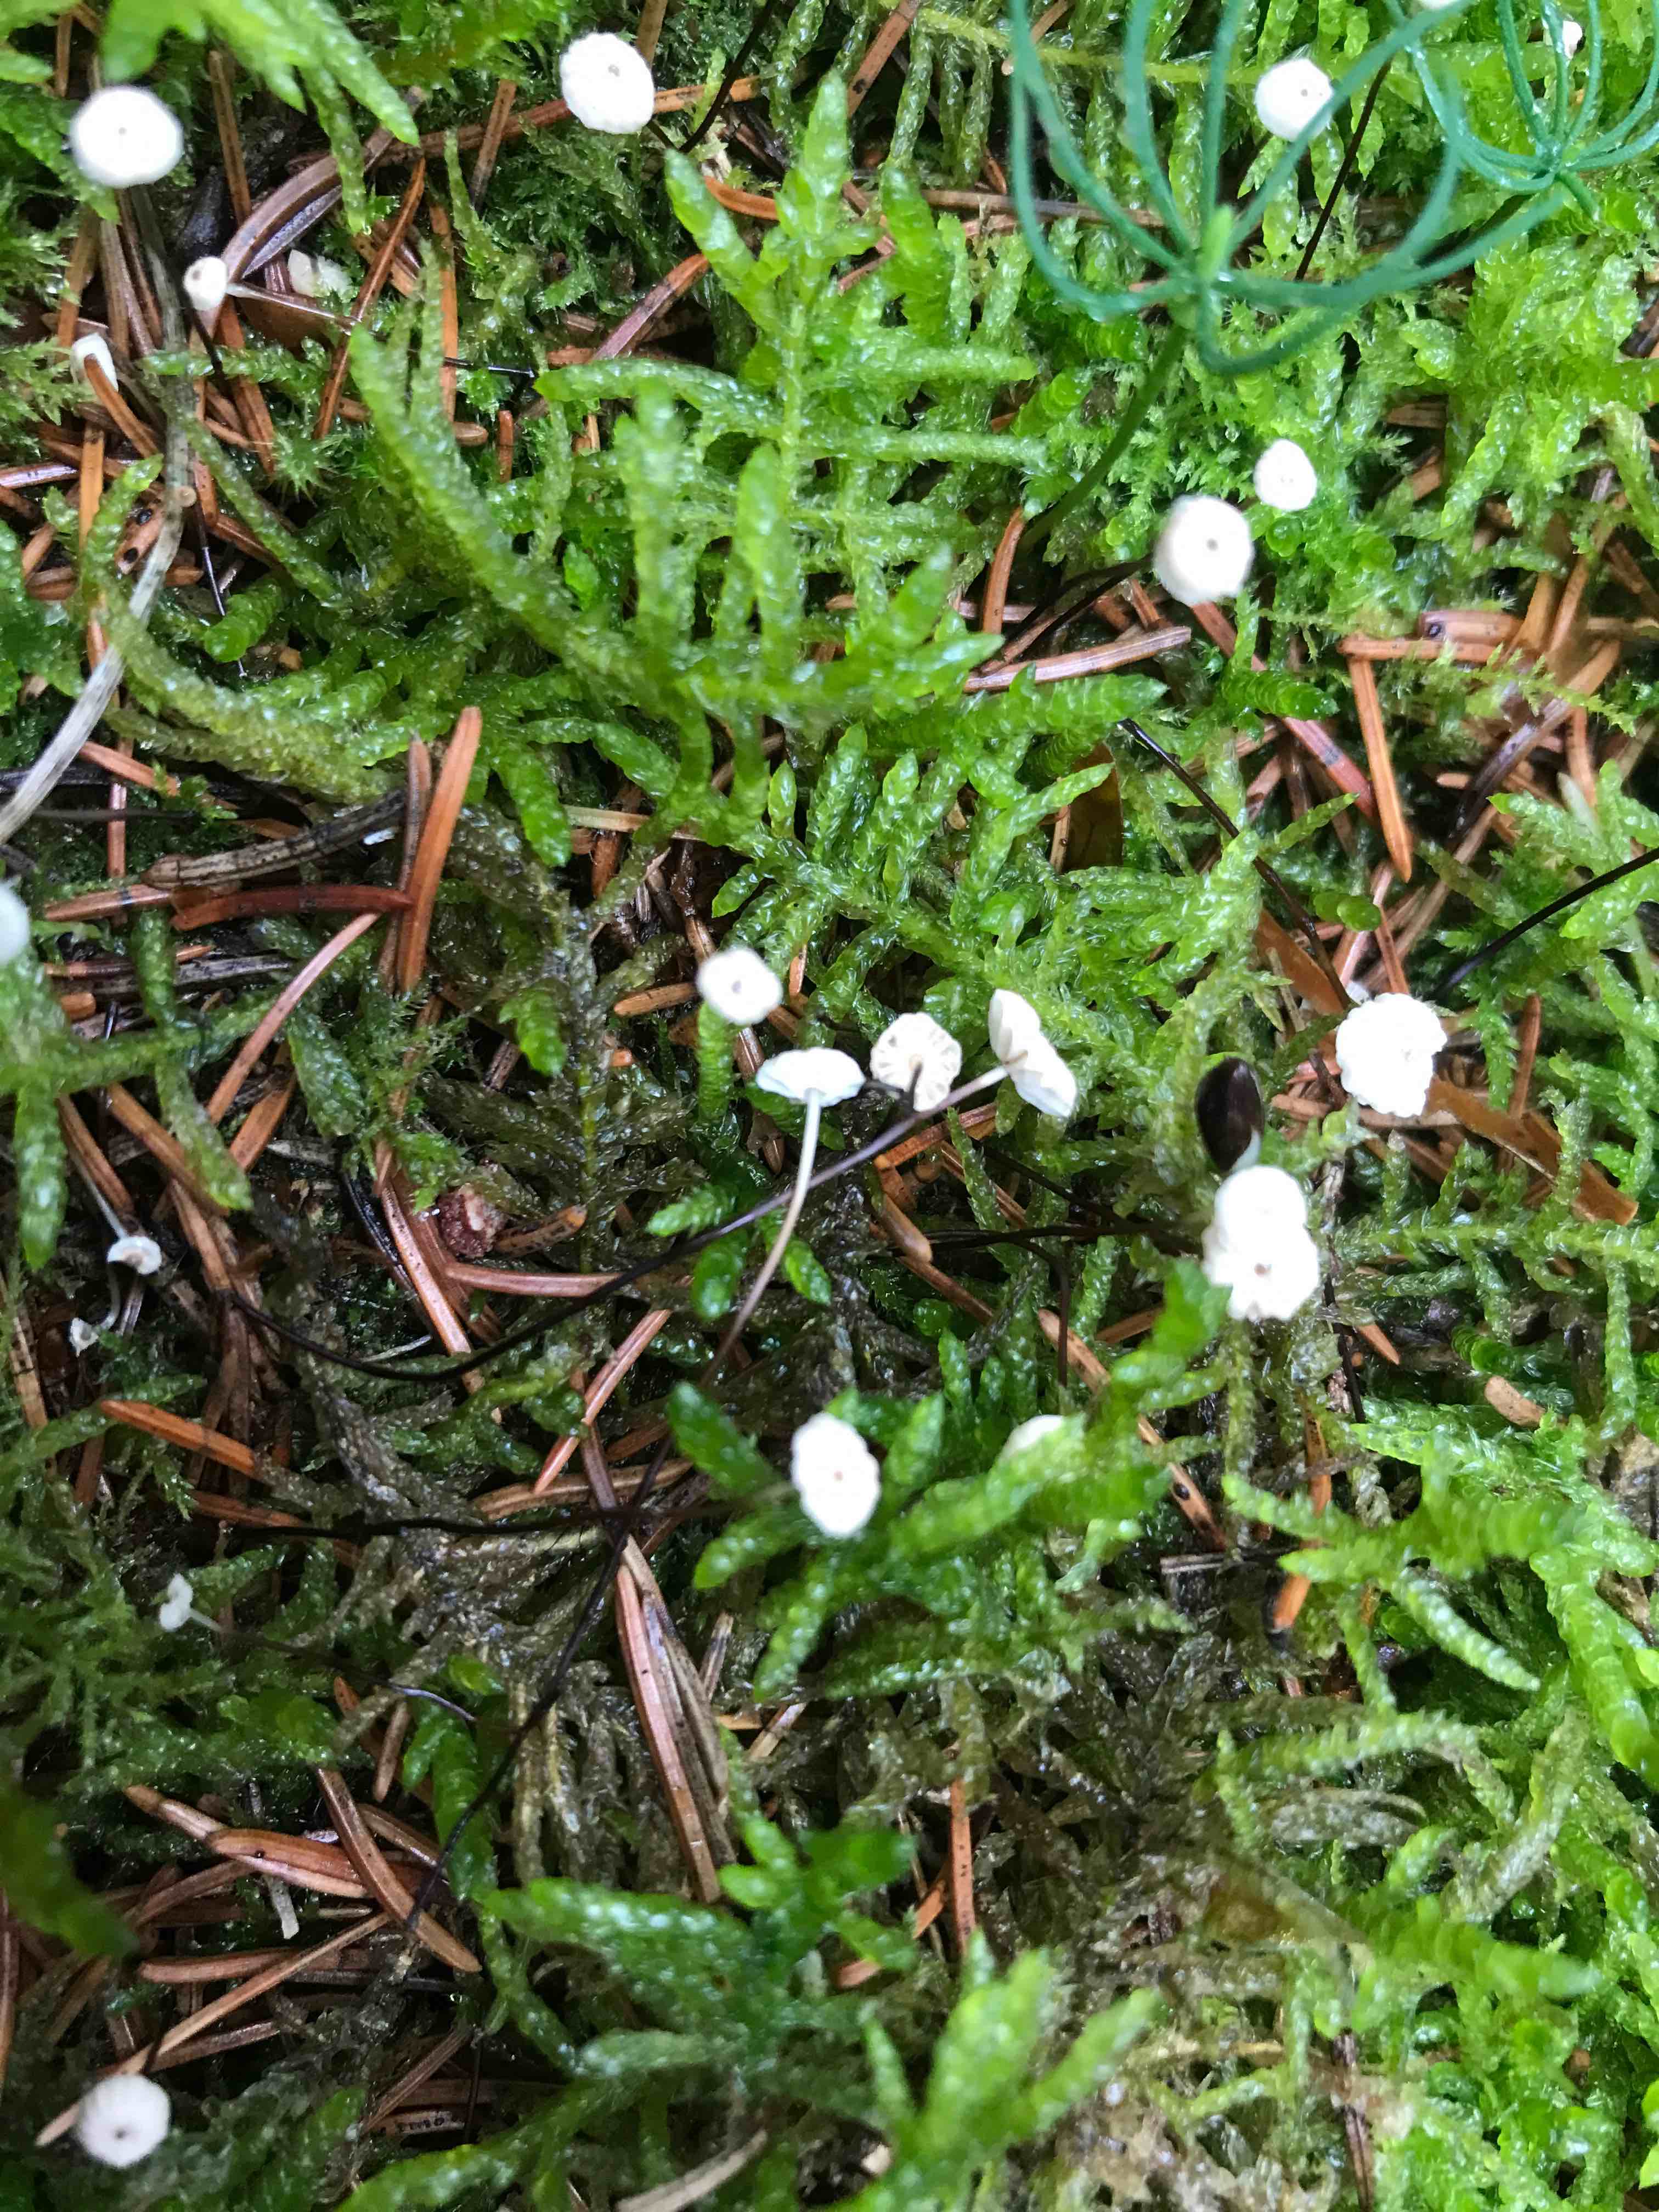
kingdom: Fungi
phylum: Basidiomycota
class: Agaricomycetes
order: Agaricales
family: Omphalotaceae
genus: Paragymnopus
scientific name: Paragymnopus perforans
